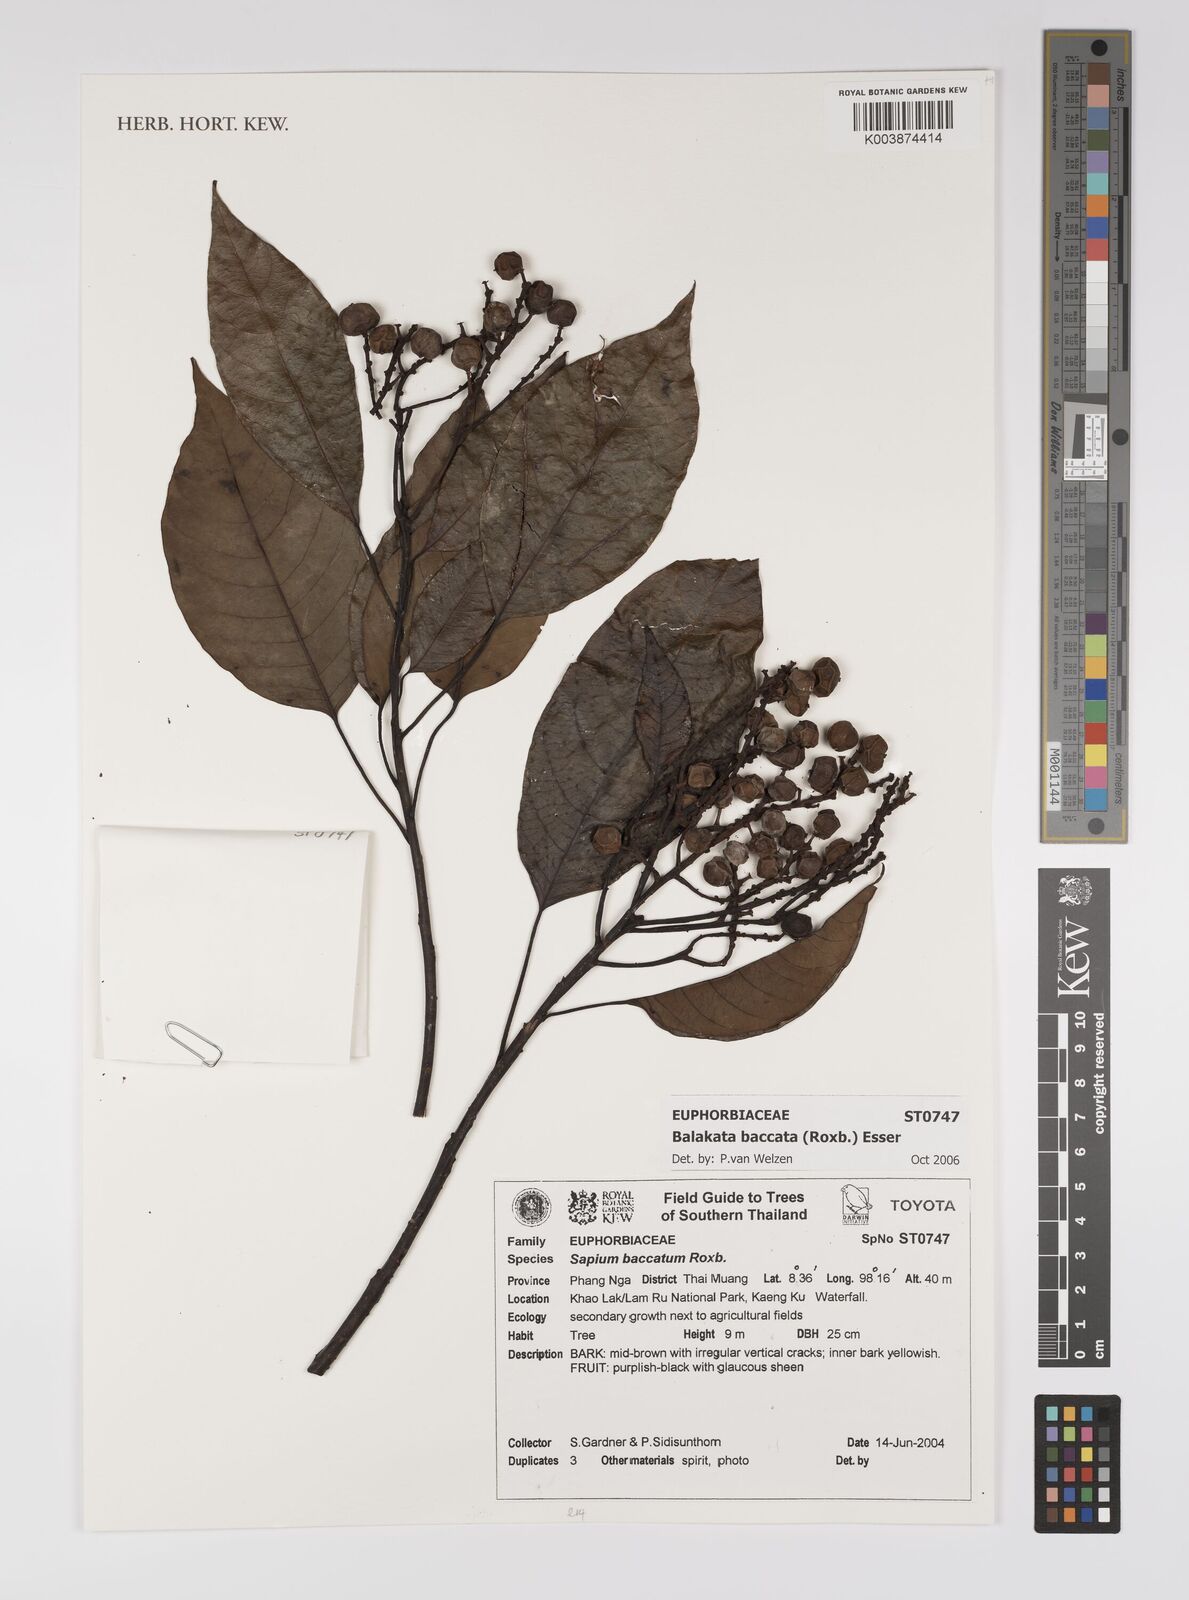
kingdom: Plantae
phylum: Tracheophyta
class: Magnoliopsida
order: Malpighiales
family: Euphorbiaceae
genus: Balakata
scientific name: Balakata baccata
